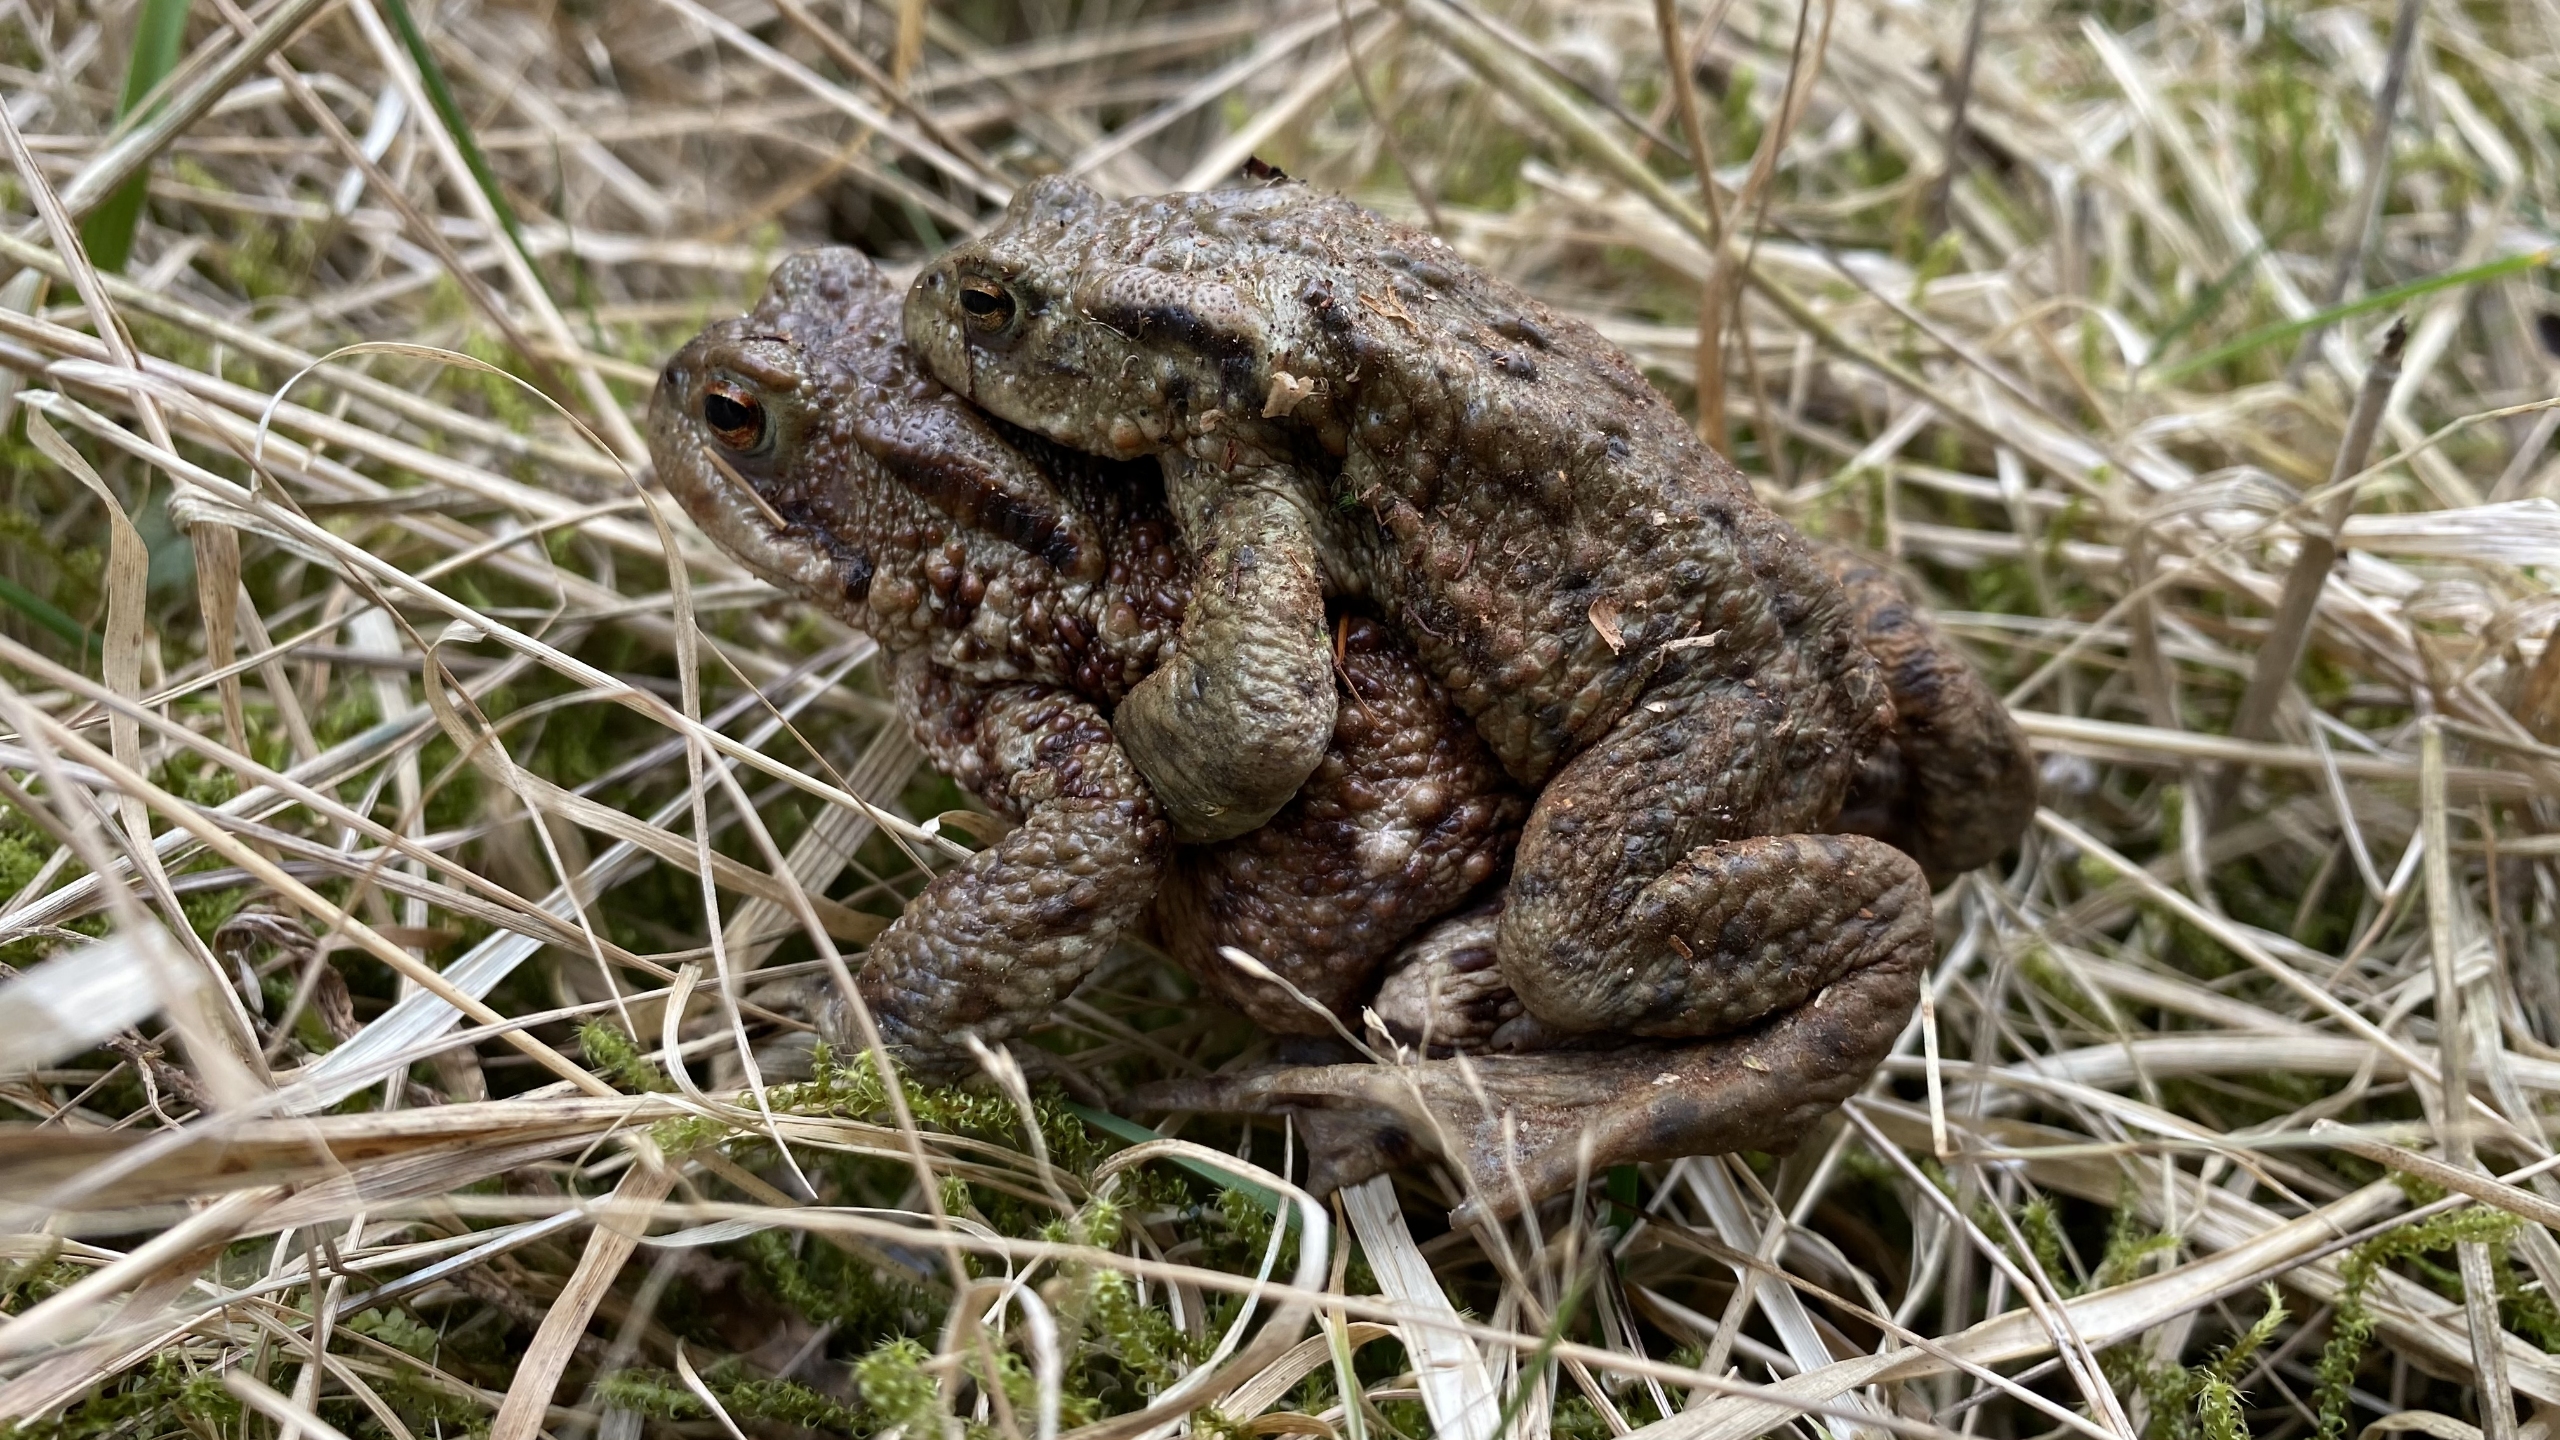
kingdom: Animalia
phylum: Chordata
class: Amphibia
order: Anura
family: Bufonidae
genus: Bufo
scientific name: Bufo bufo
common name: Skrubtudse
